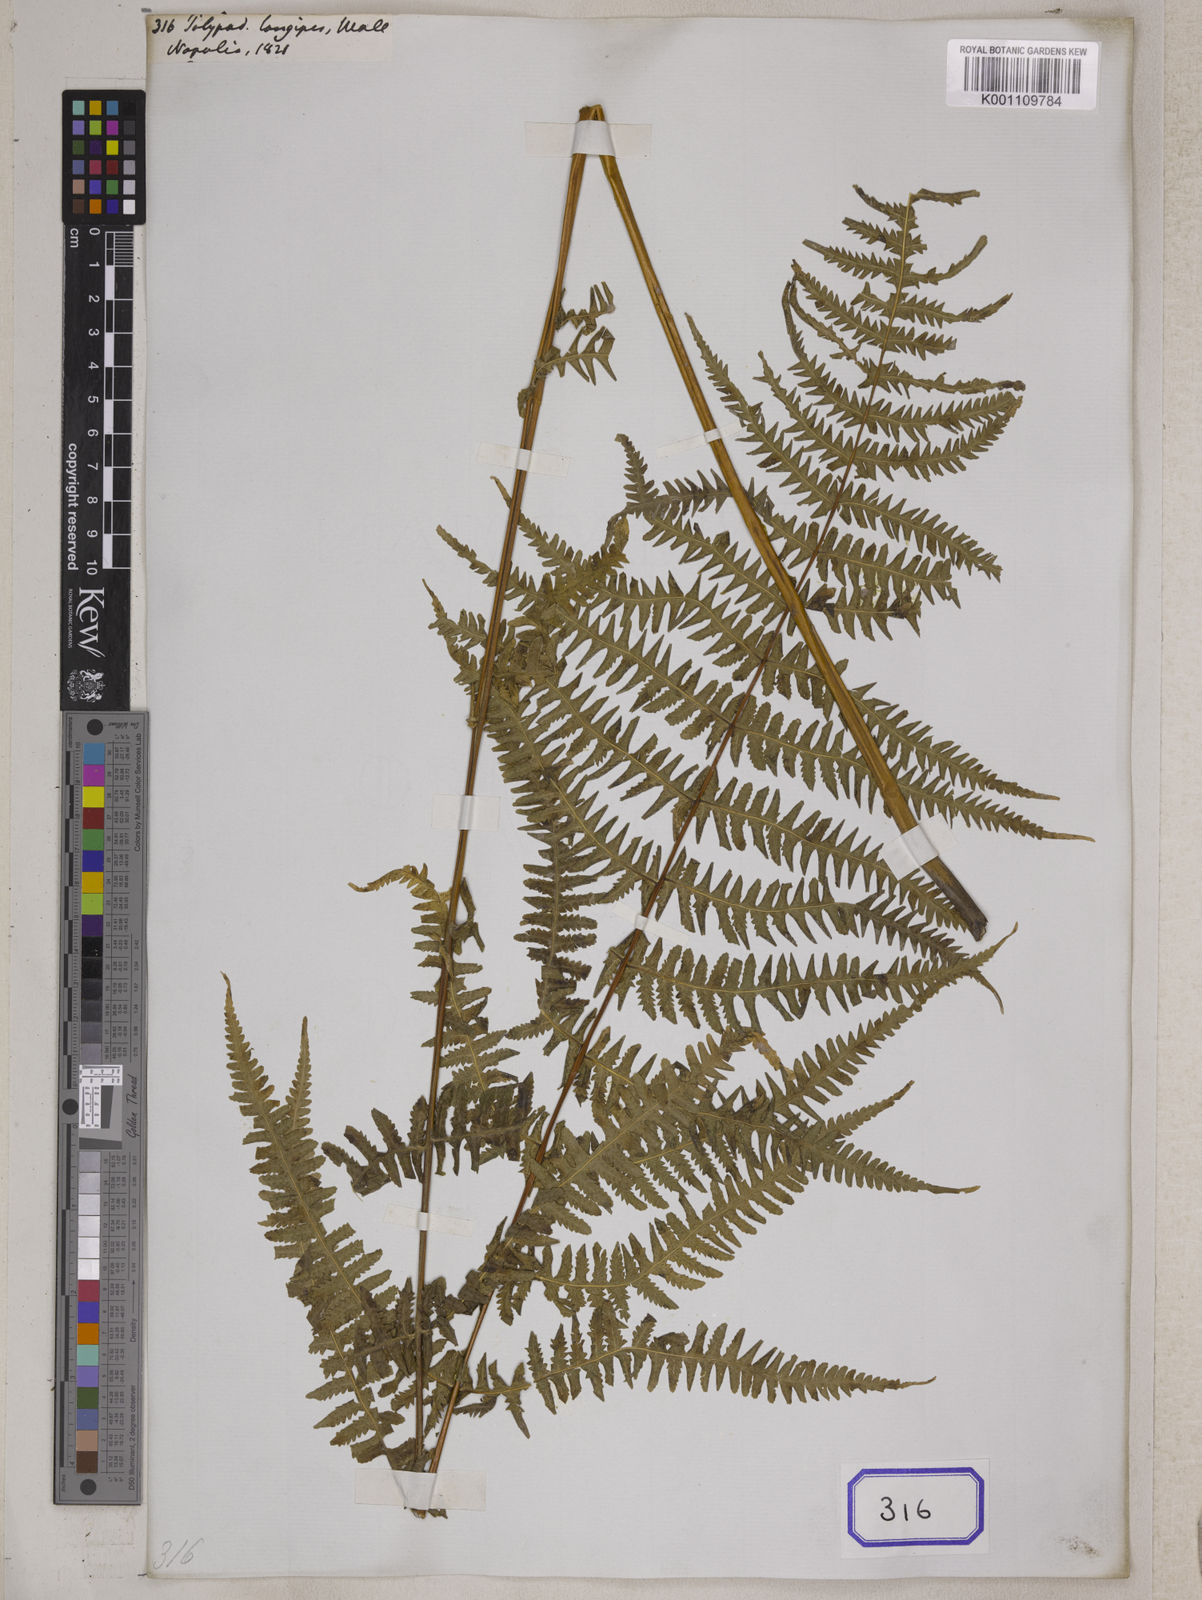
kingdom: Plantae
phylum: Tracheophyta
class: Polypodiopsida
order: Polypodiales
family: Thelypteridaceae
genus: Pseudophegopteris
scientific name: Pseudophegopteris paludosa
